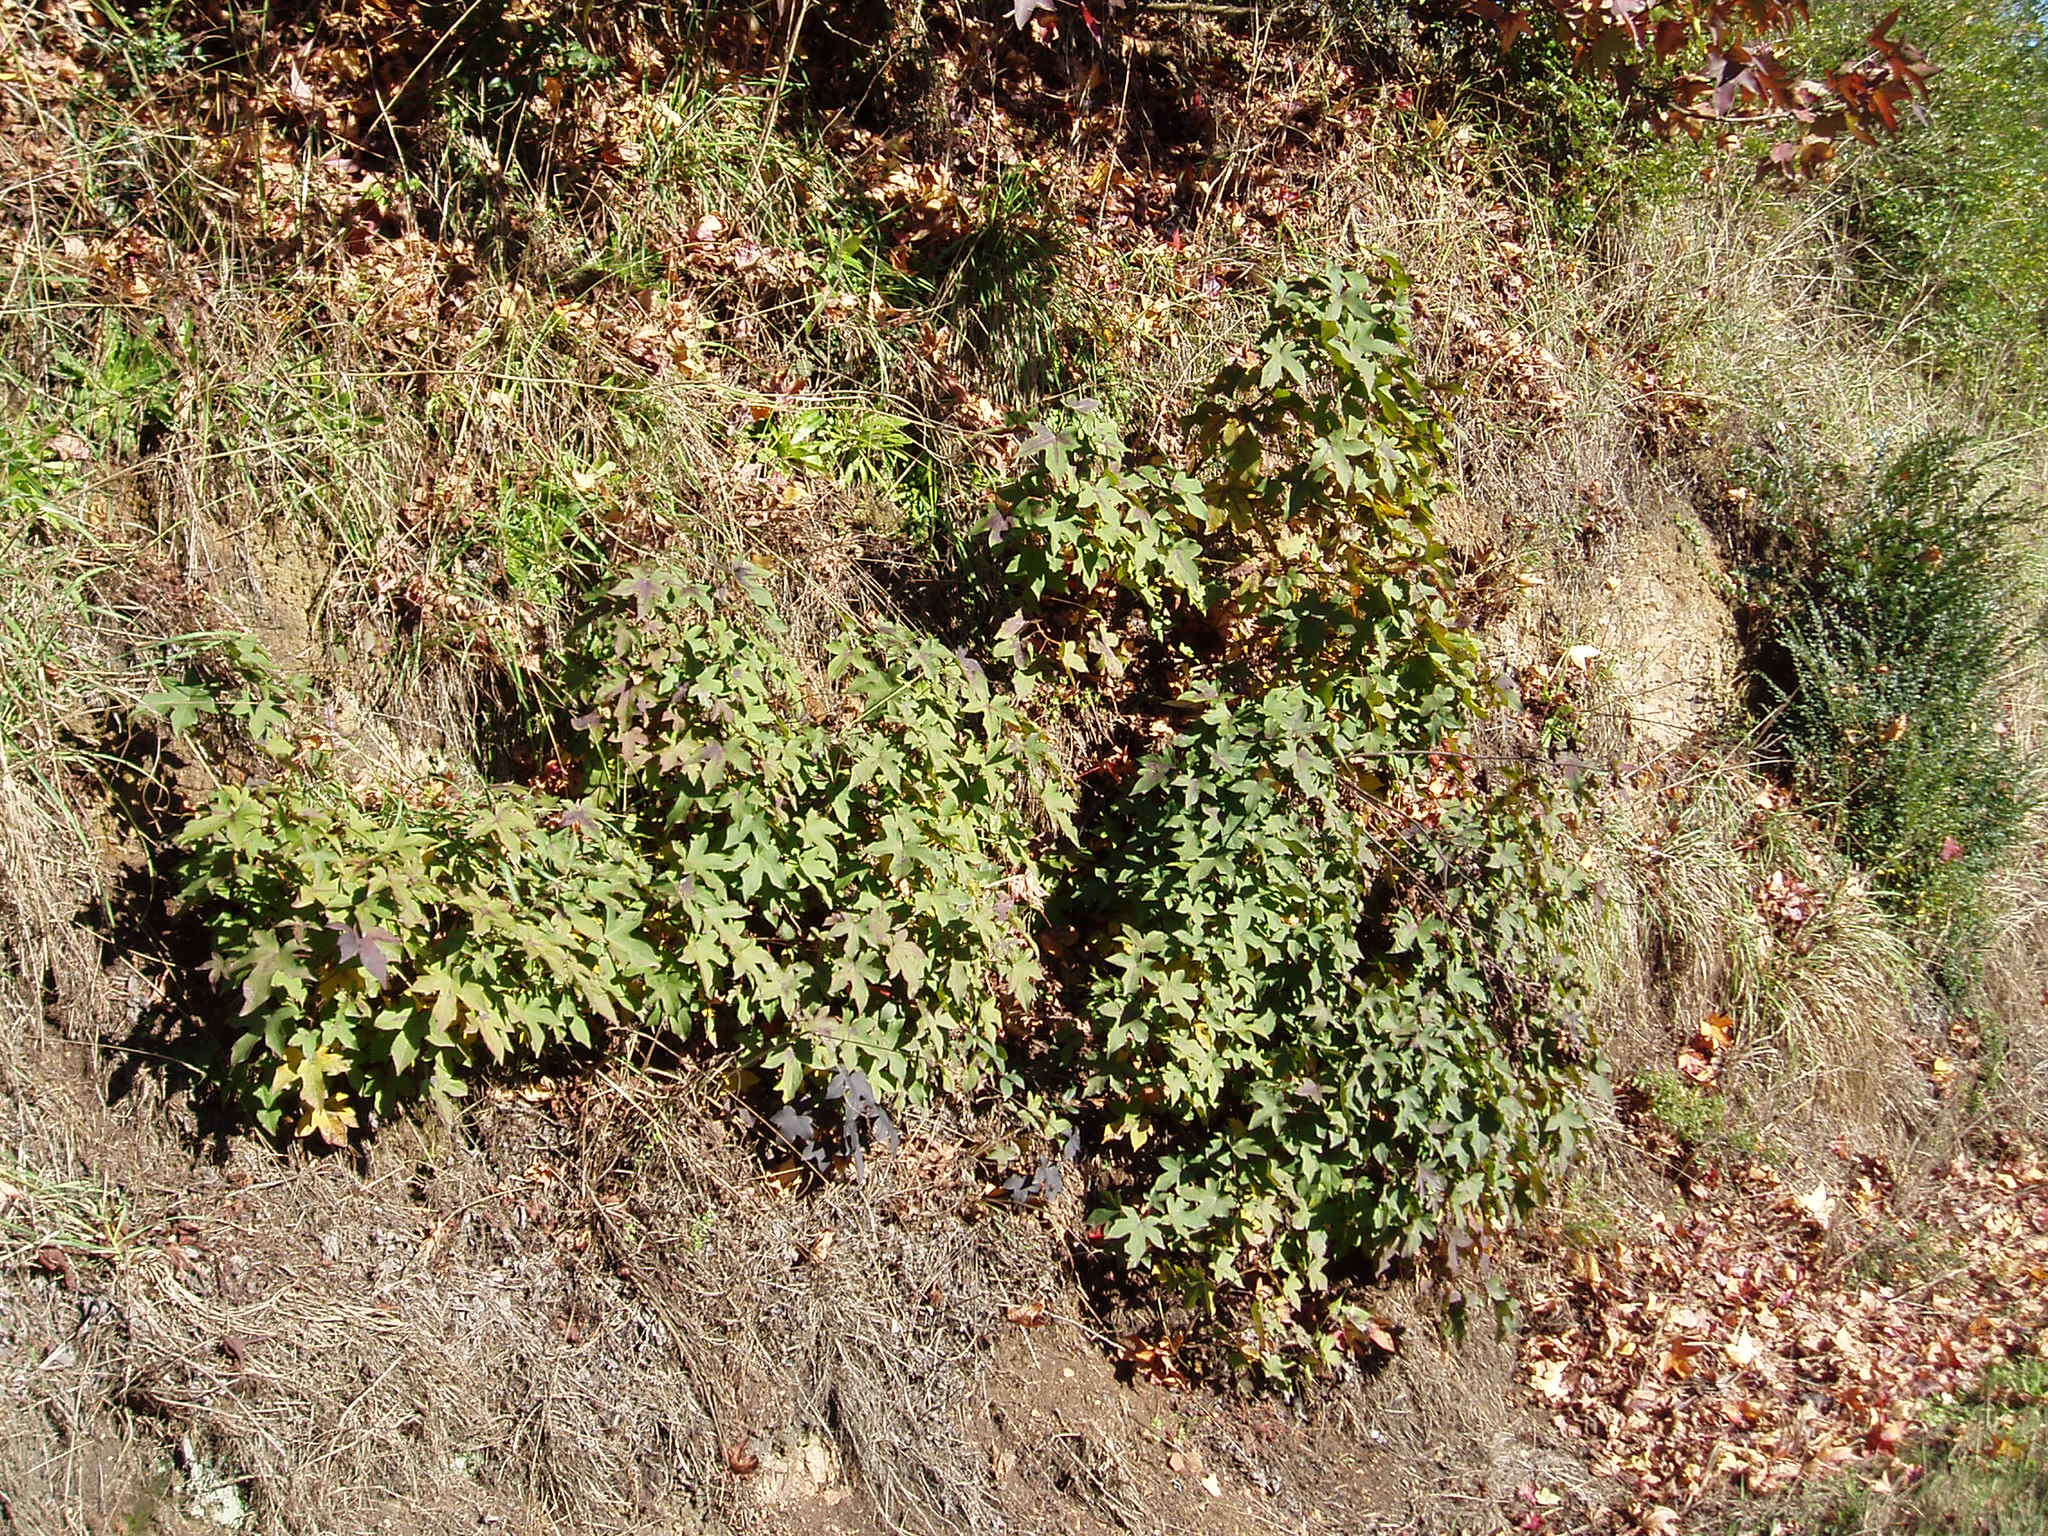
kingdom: Plantae
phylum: Tracheophyta
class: Magnoliopsida
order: Saxifragales
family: Altingiaceae
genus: Liquidambar
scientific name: Liquidambar styraciflua
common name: Sweet gum
